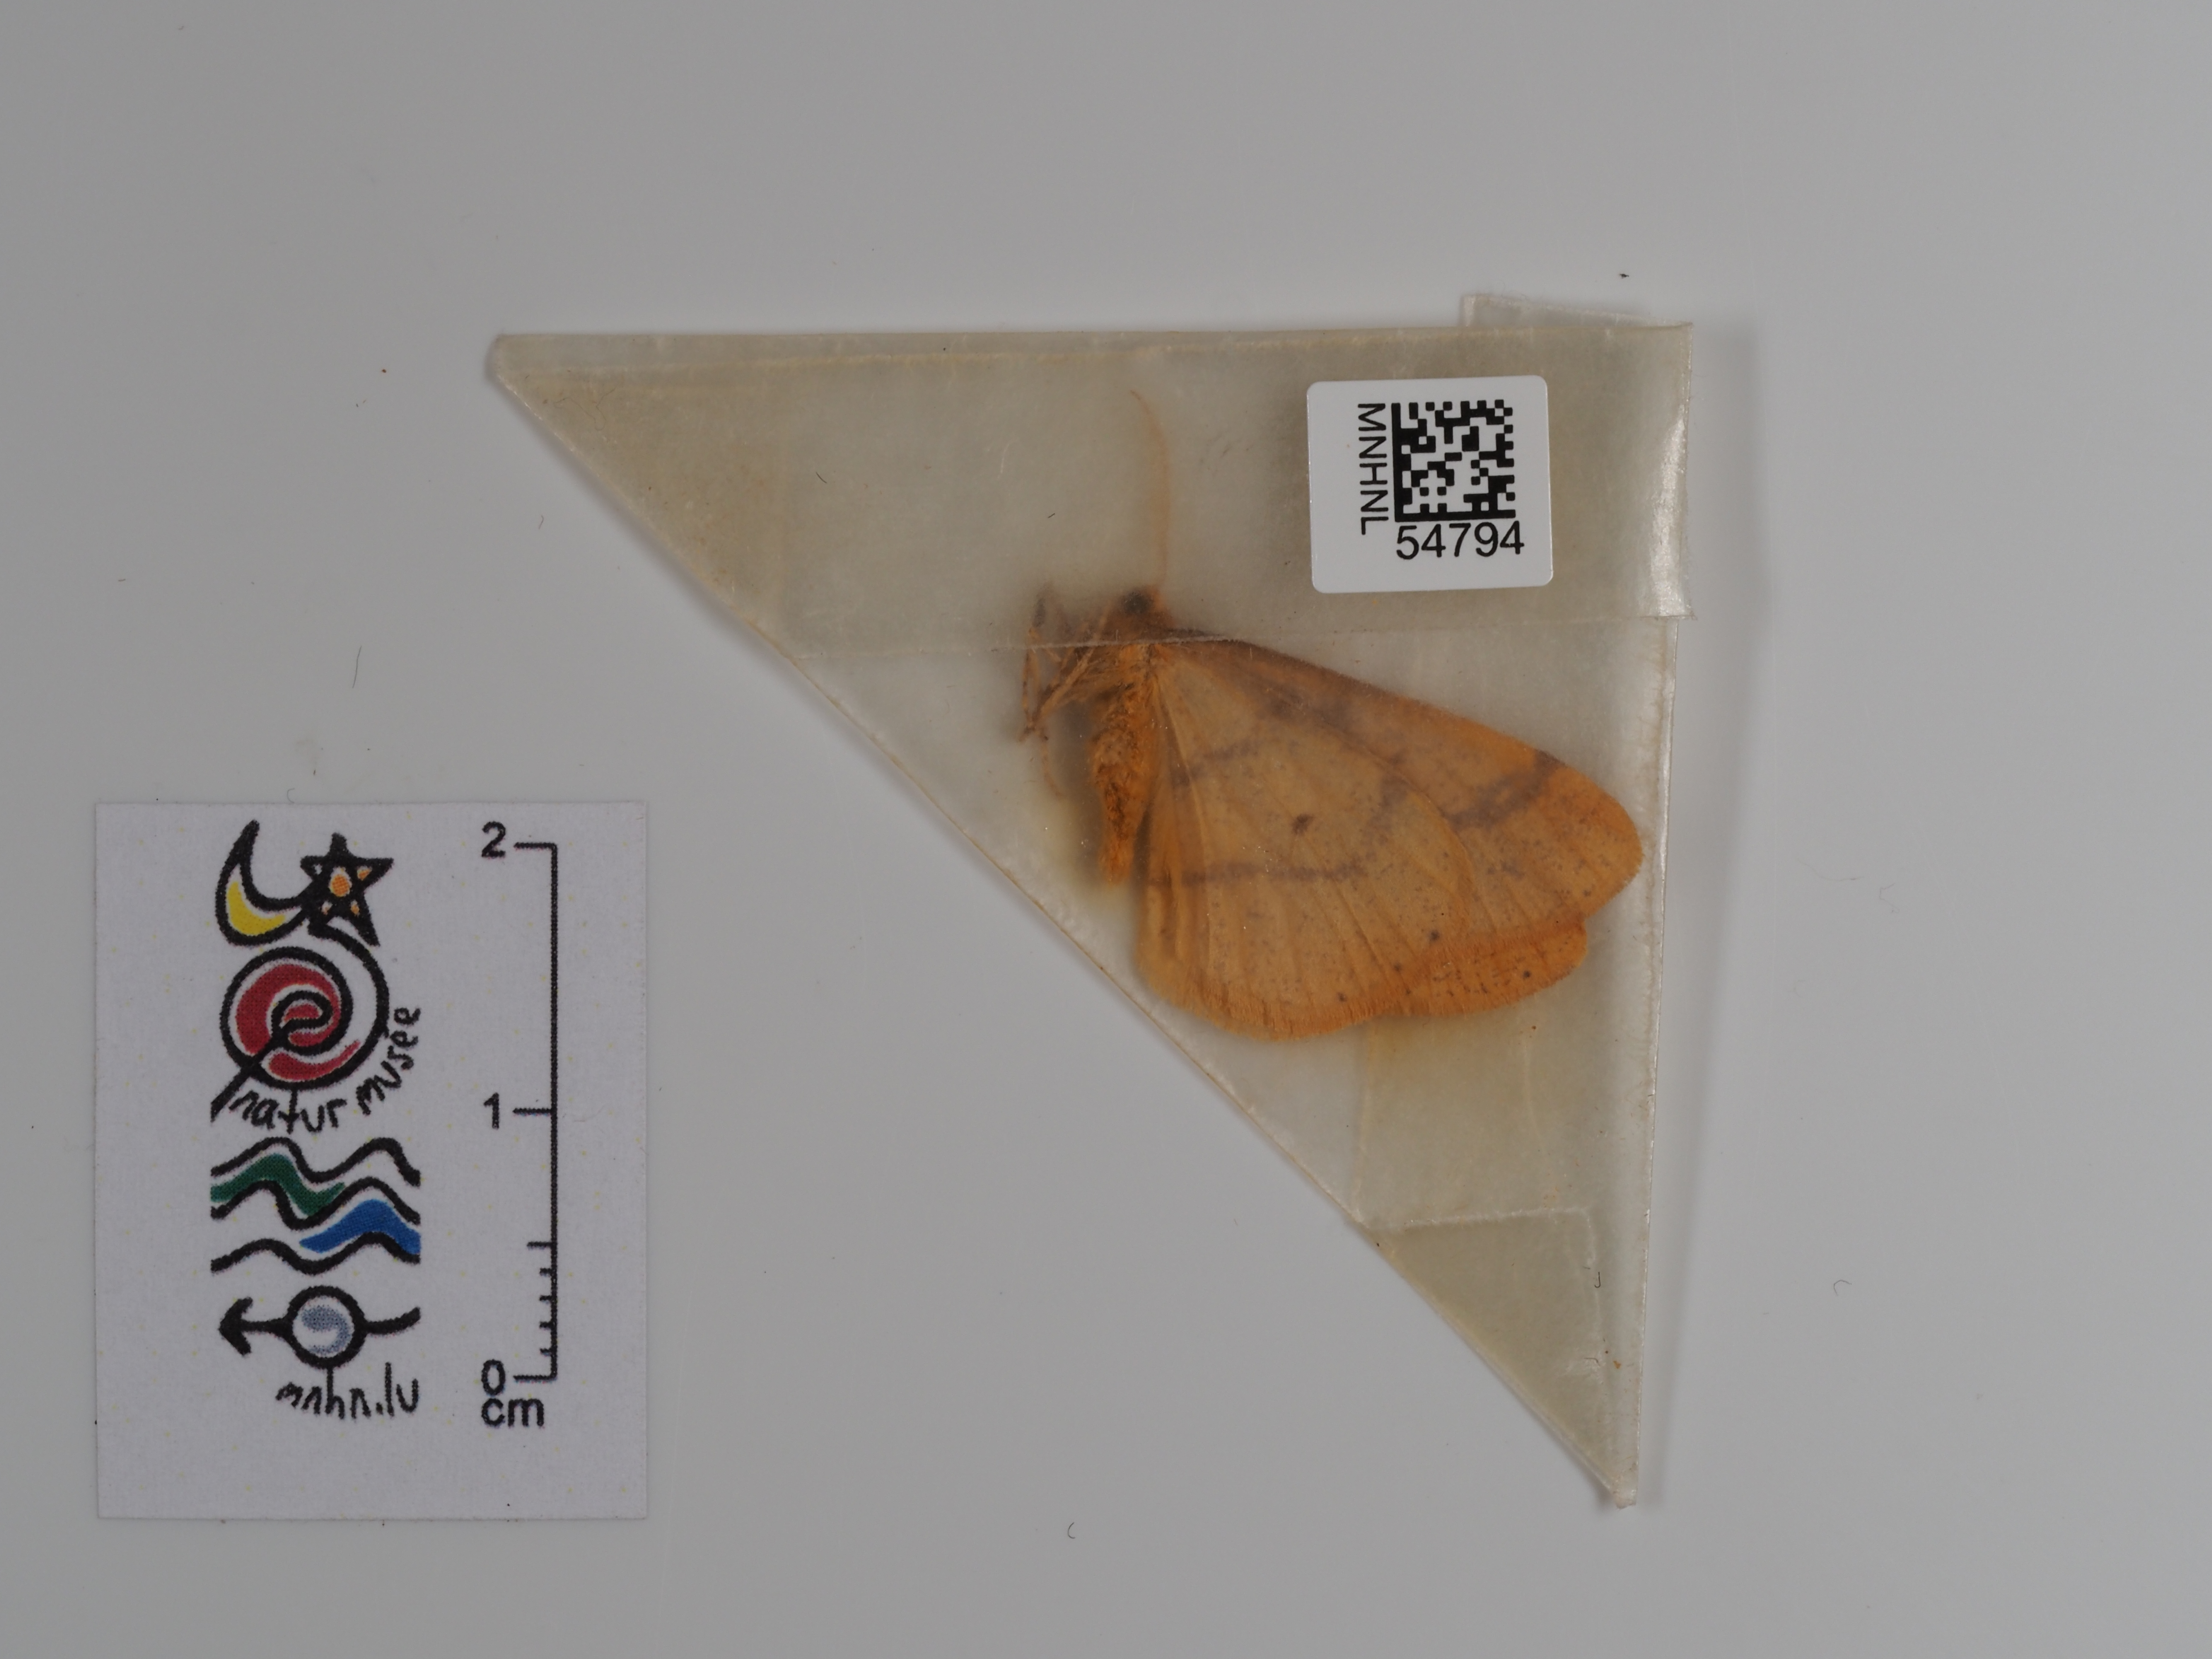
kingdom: Animalia
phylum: Arthropoda
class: Insecta
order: Lepidoptera
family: Geometridae
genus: Agriopis
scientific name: Agriopis aurantiaria
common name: Scarce umber
